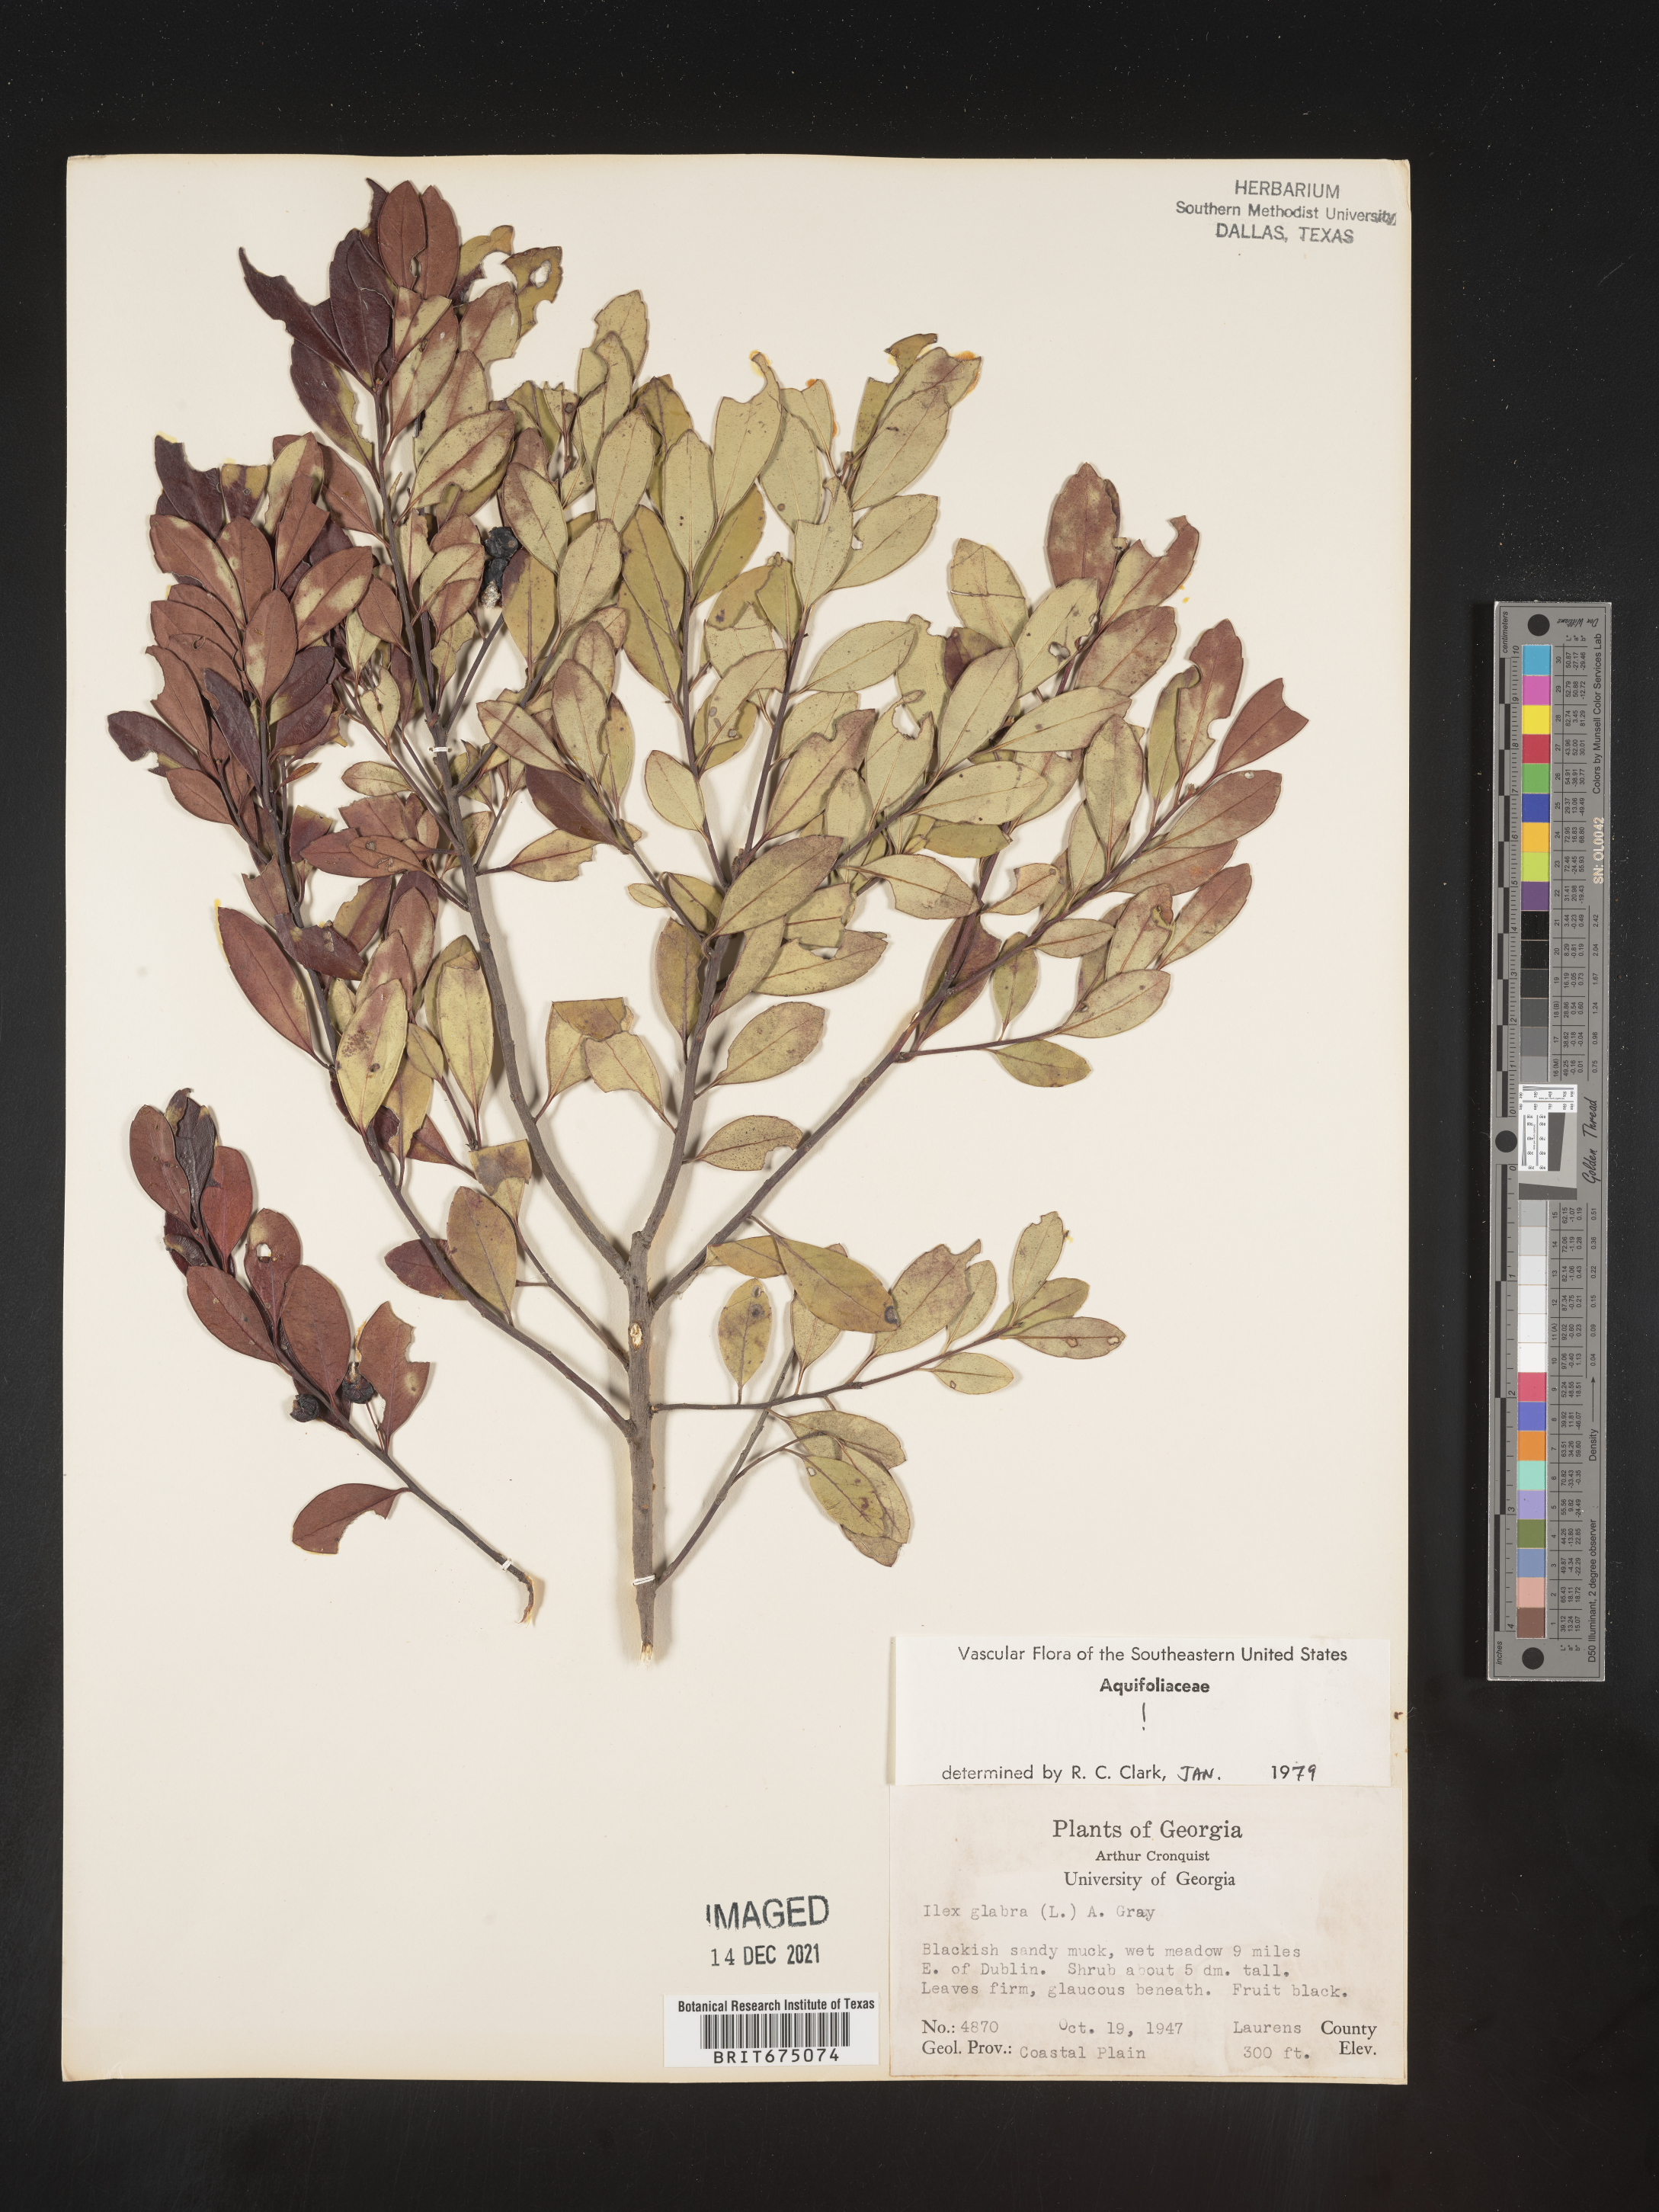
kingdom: Plantae
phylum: Tracheophyta
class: Magnoliopsida
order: Aquifoliales
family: Aquifoliaceae
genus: Ilex
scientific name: Ilex glabra
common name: Bitter gallberry
